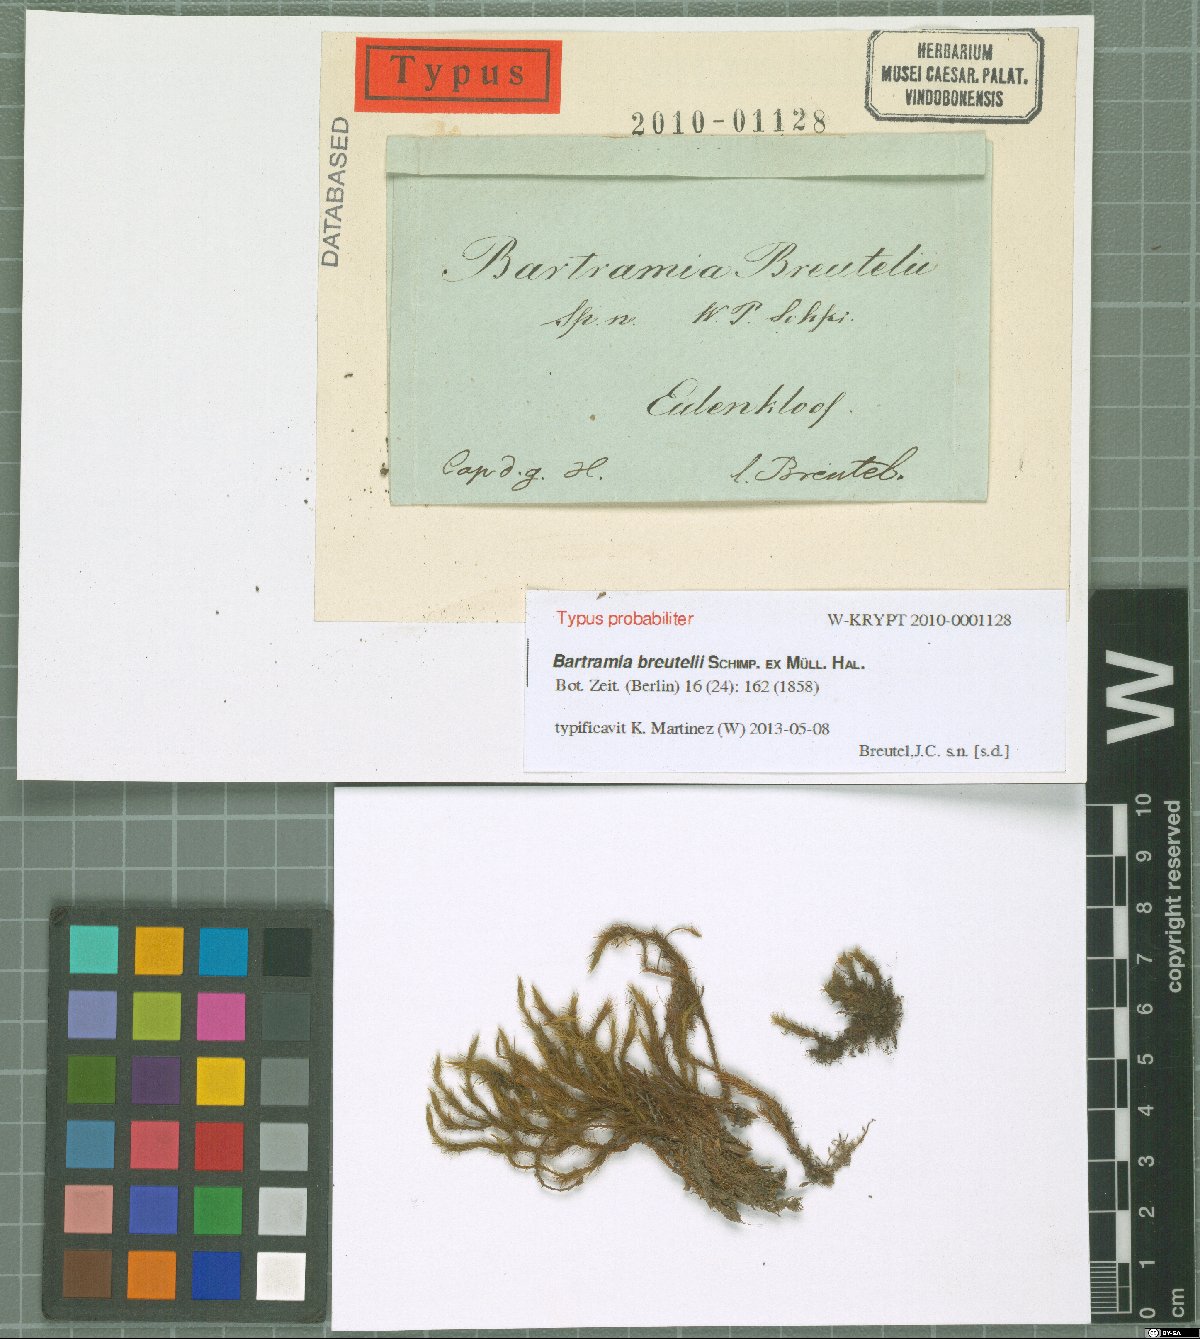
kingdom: Plantae
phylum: Bryophyta
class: Bryopsida
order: Bartramiales
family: Bartramiaceae
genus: Anacolia
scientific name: Anacolia breutelii
